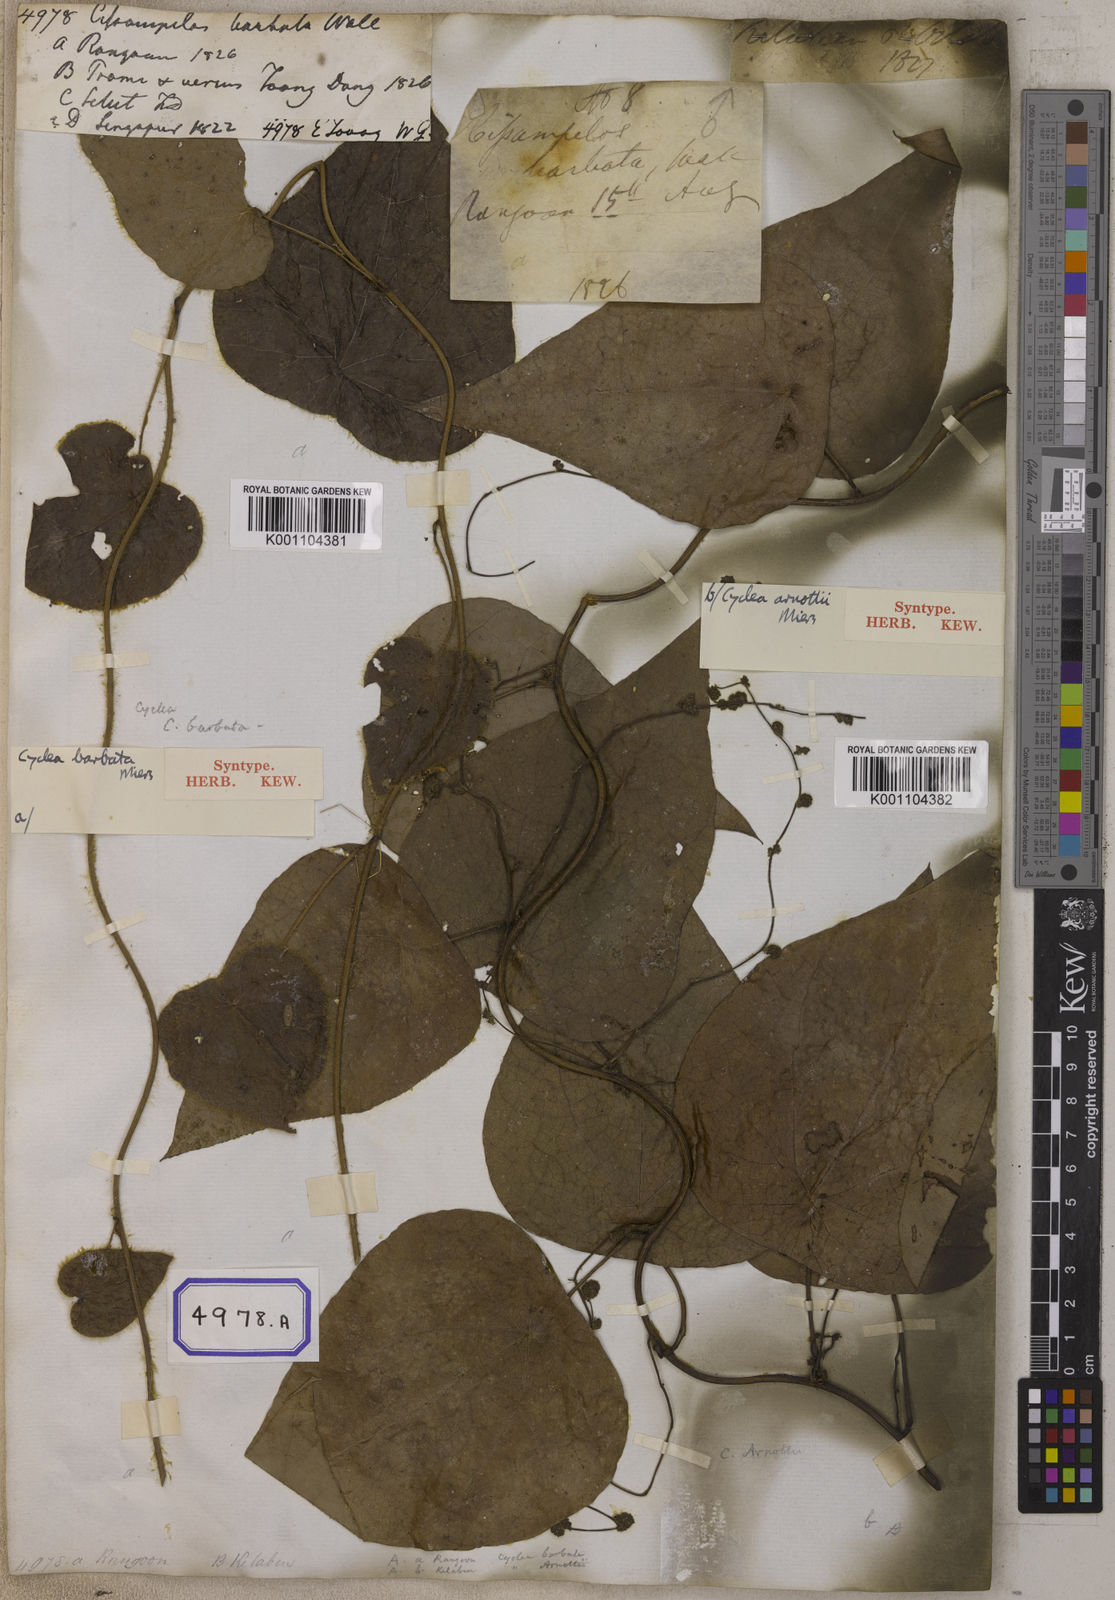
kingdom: Plantae
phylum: Tracheophyta
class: Magnoliopsida
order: Ranunculales
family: Menispermaceae
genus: Cissampelos
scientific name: Cissampelos
